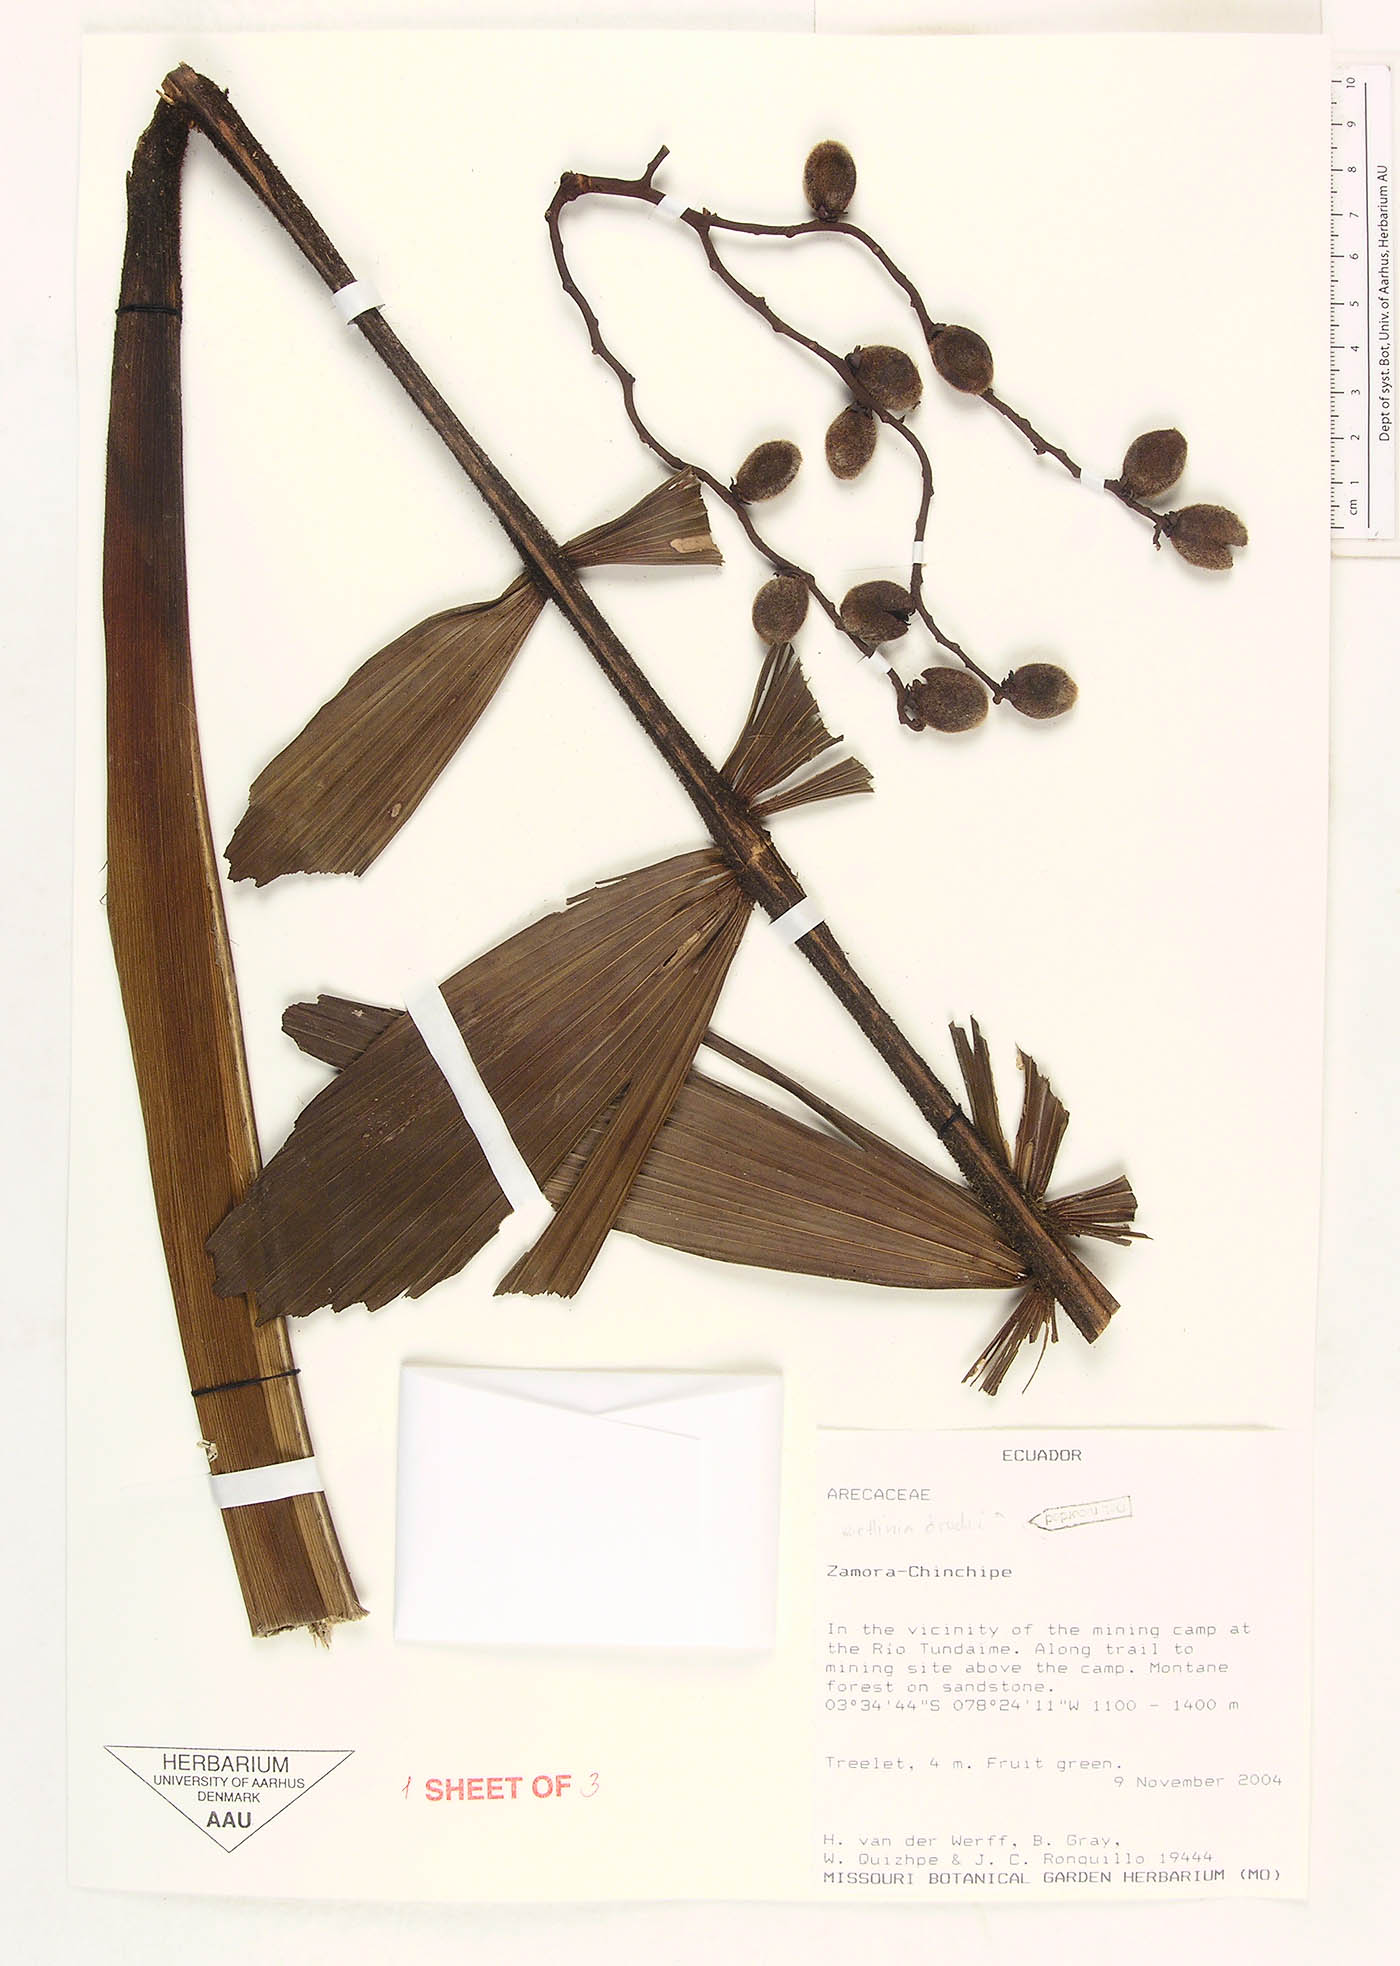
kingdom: Plantae
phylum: Tracheophyta
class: Liliopsida
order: Arecales
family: Arecaceae
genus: Wettinia
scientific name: Wettinia drudei
